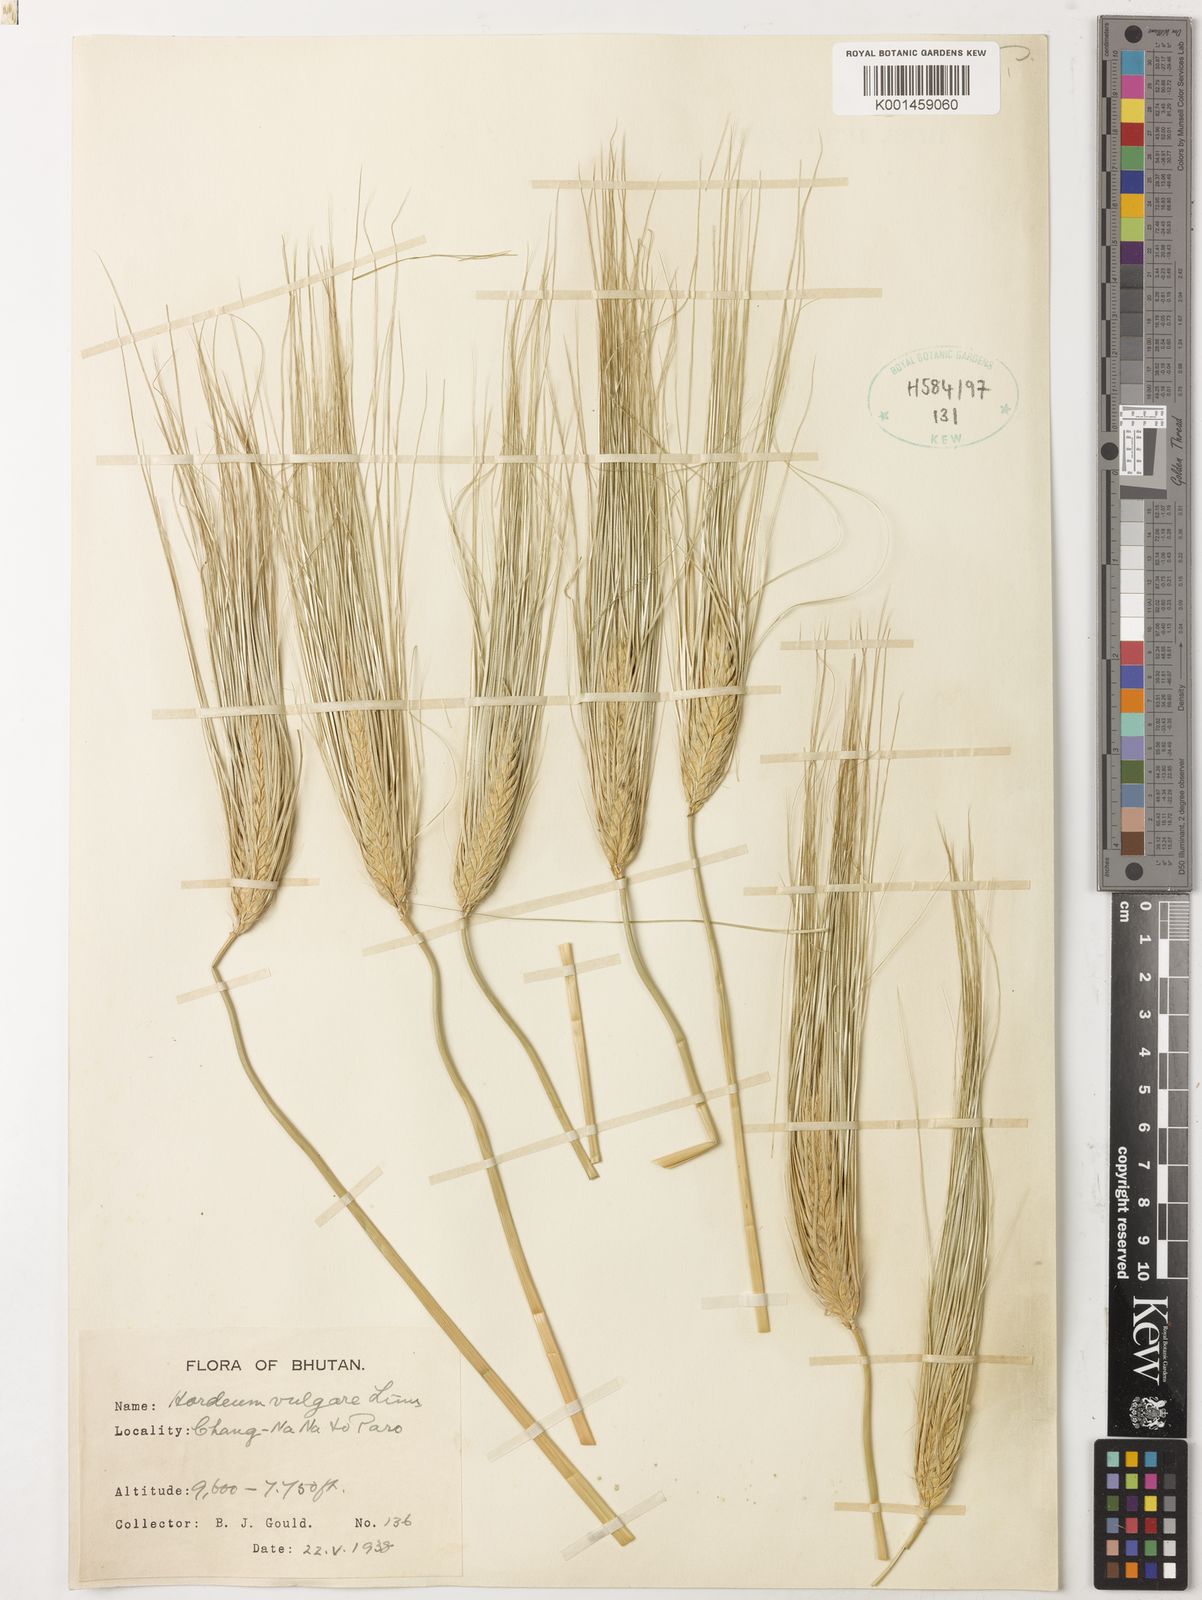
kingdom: Plantae
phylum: Tracheophyta
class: Liliopsida
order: Poales
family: Poaceae
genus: Hordeum
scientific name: Hordeum vulgare
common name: Common barley
